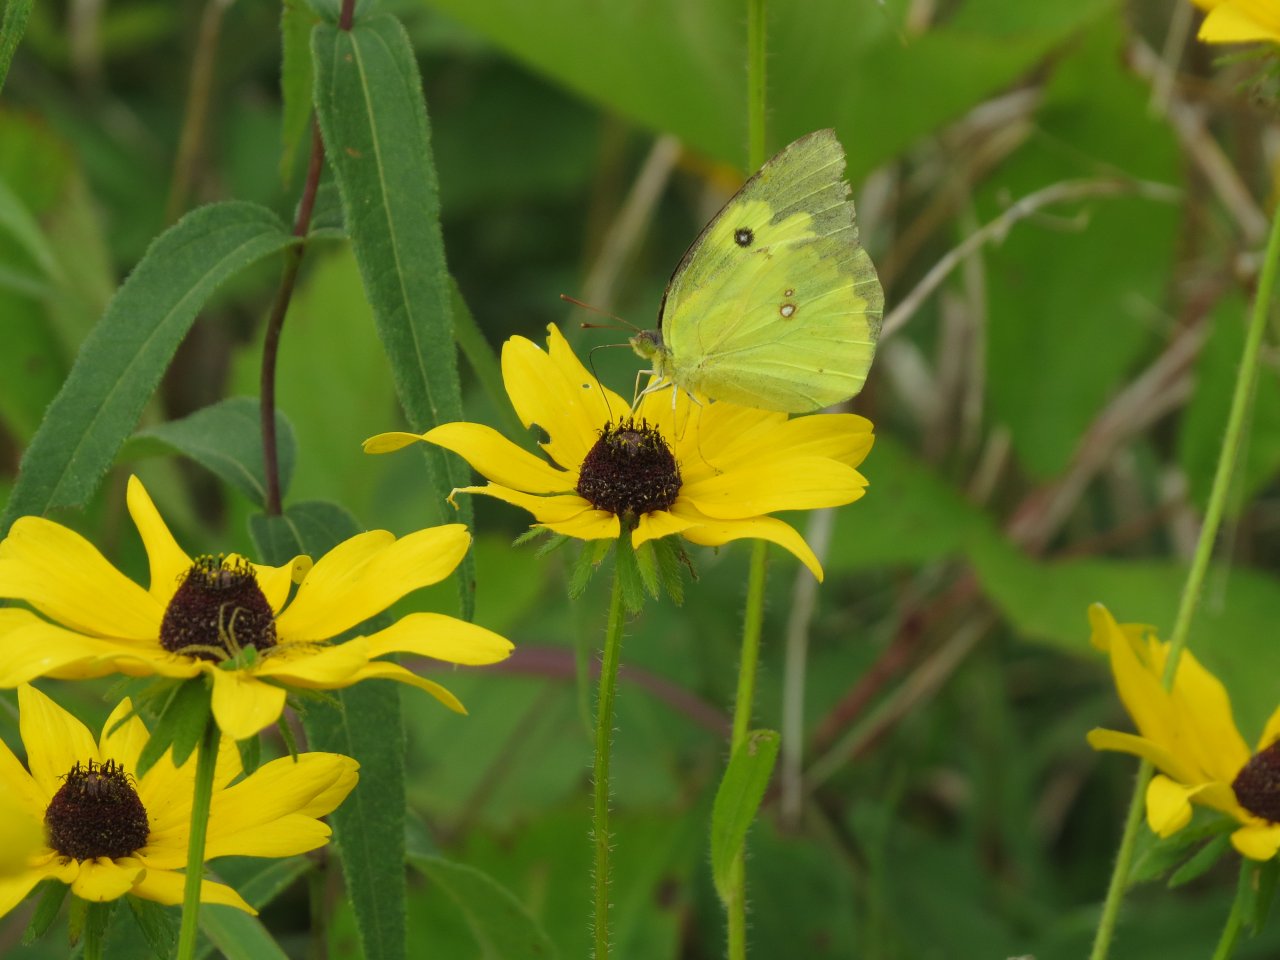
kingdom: Animalia
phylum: Arthropoda
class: Insecta
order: Lepidoptera
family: Pieridae
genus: Zerene
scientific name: Zerene cesonia
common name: Southern Dogface
